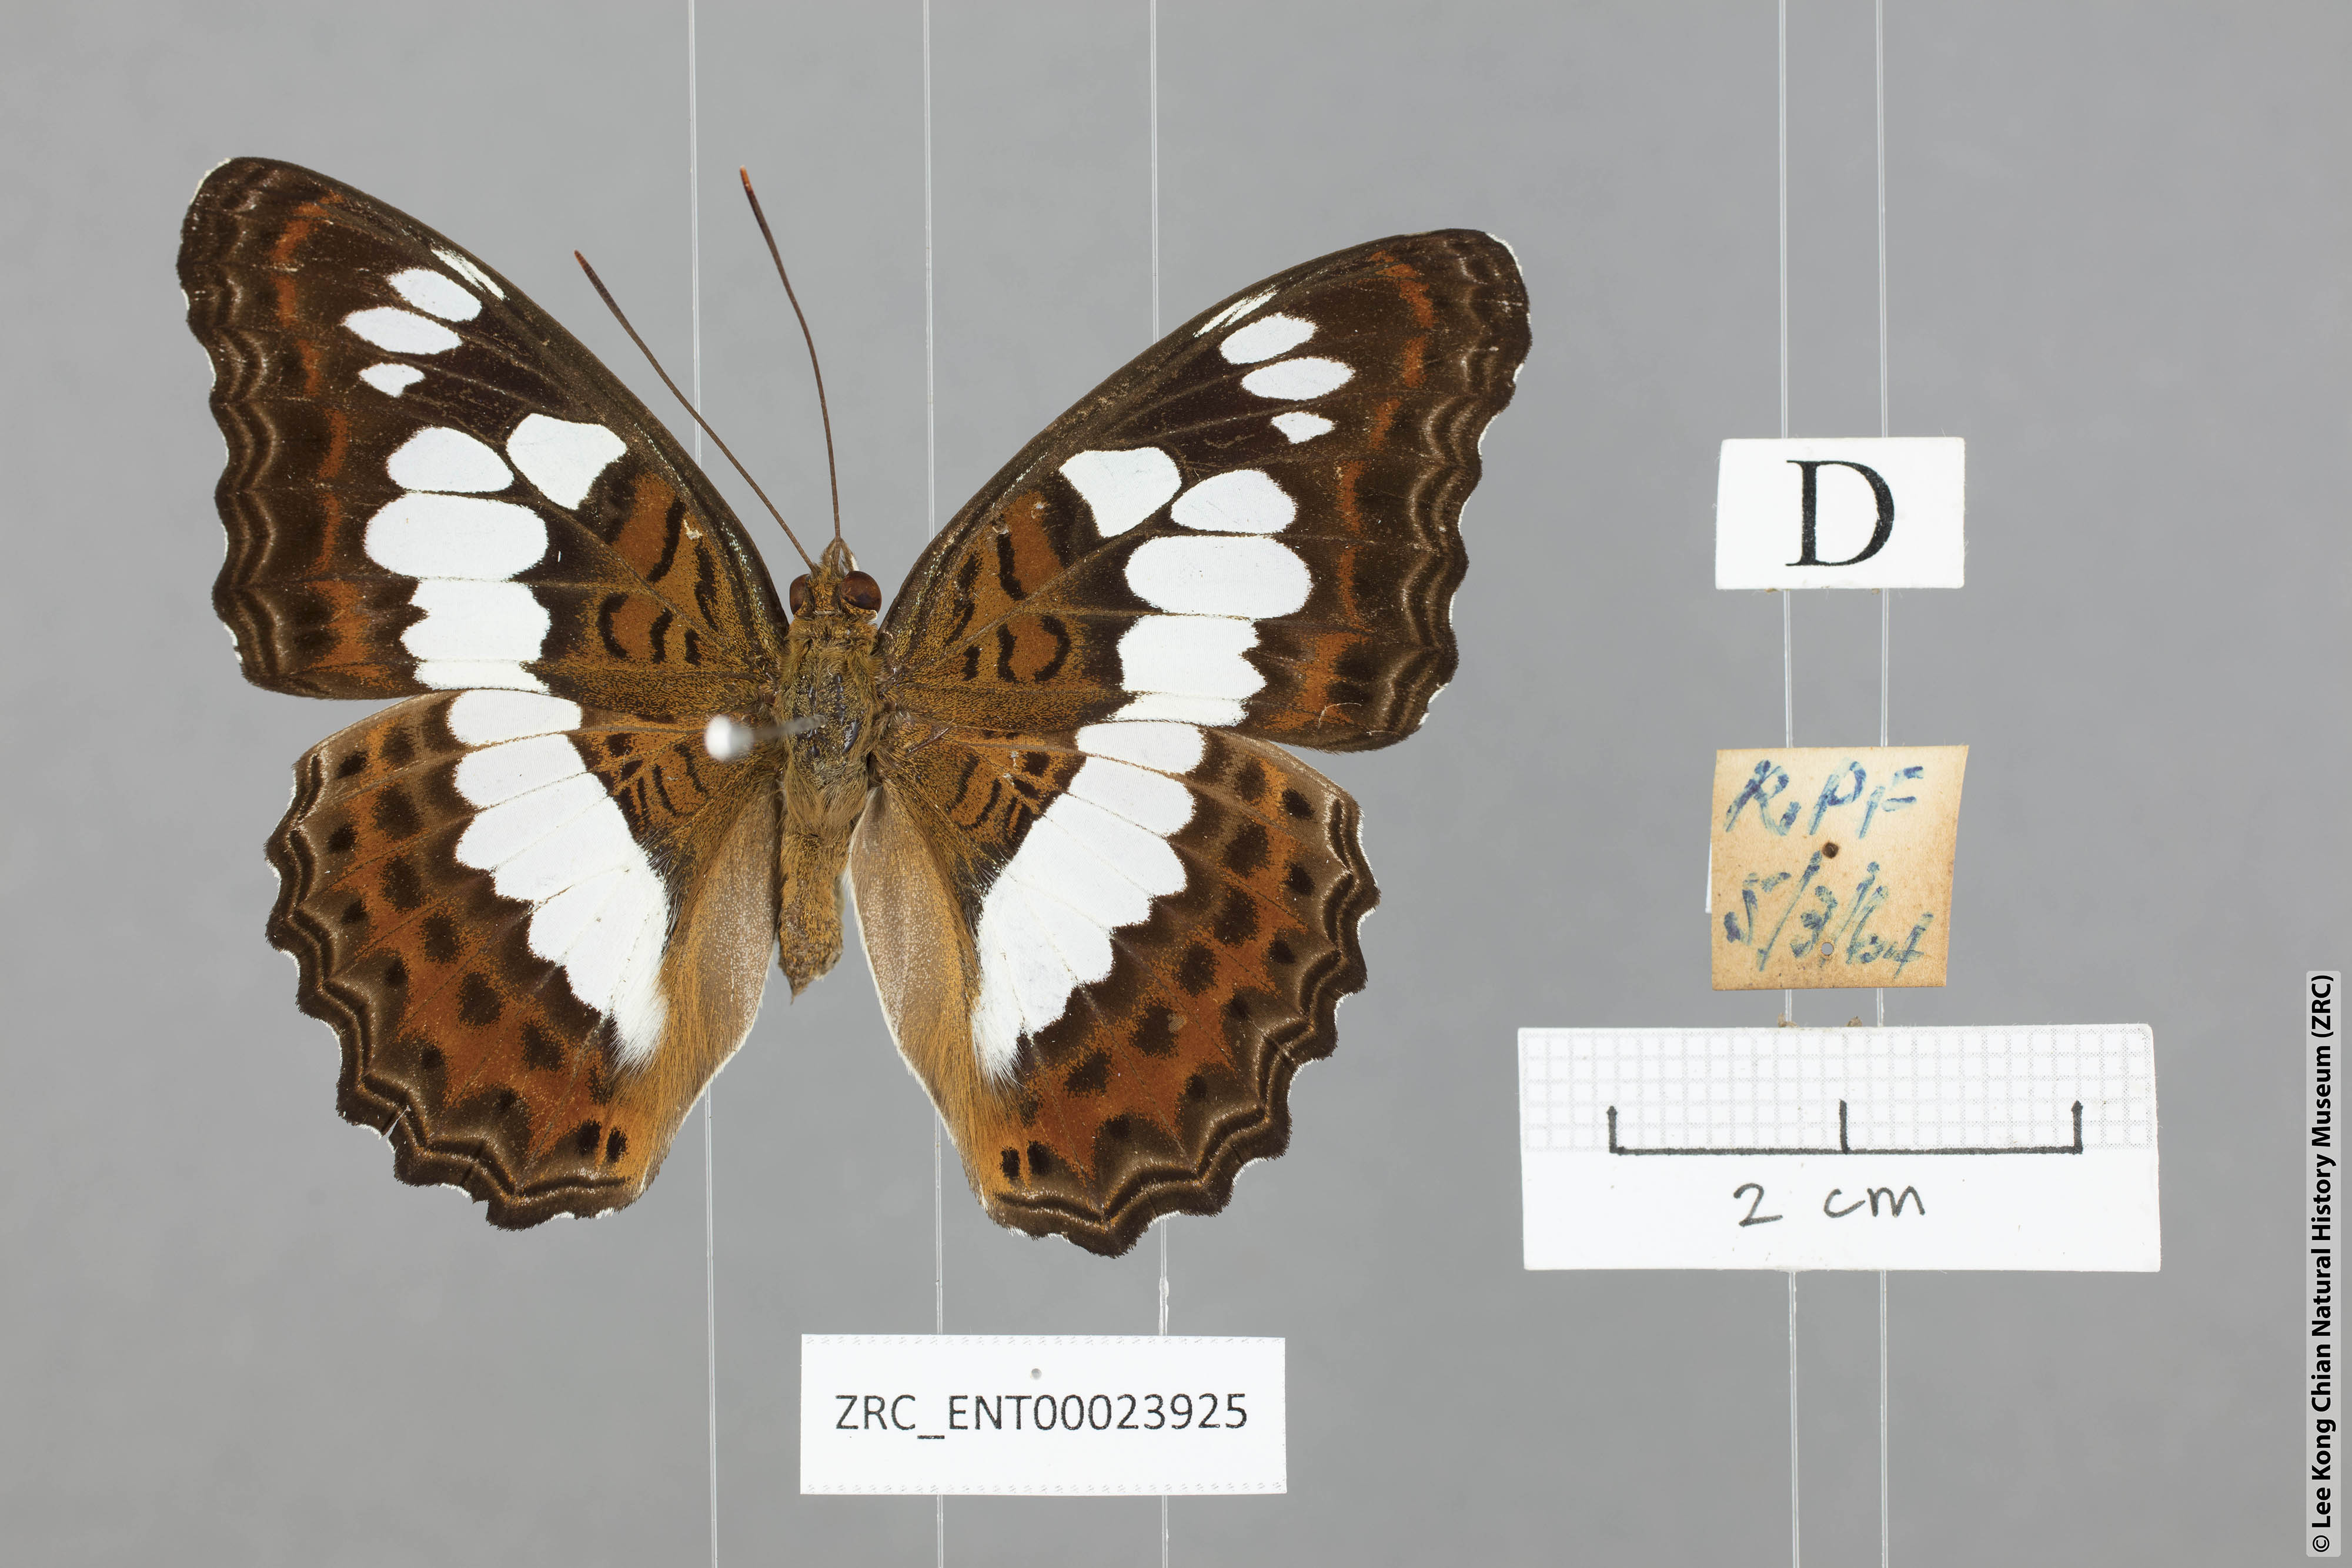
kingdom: Animalia
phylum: Arthropoda
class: Insecta
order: Lepidoptera
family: Nymphalidae
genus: Limenitis
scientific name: Limenitis Moduza procris
